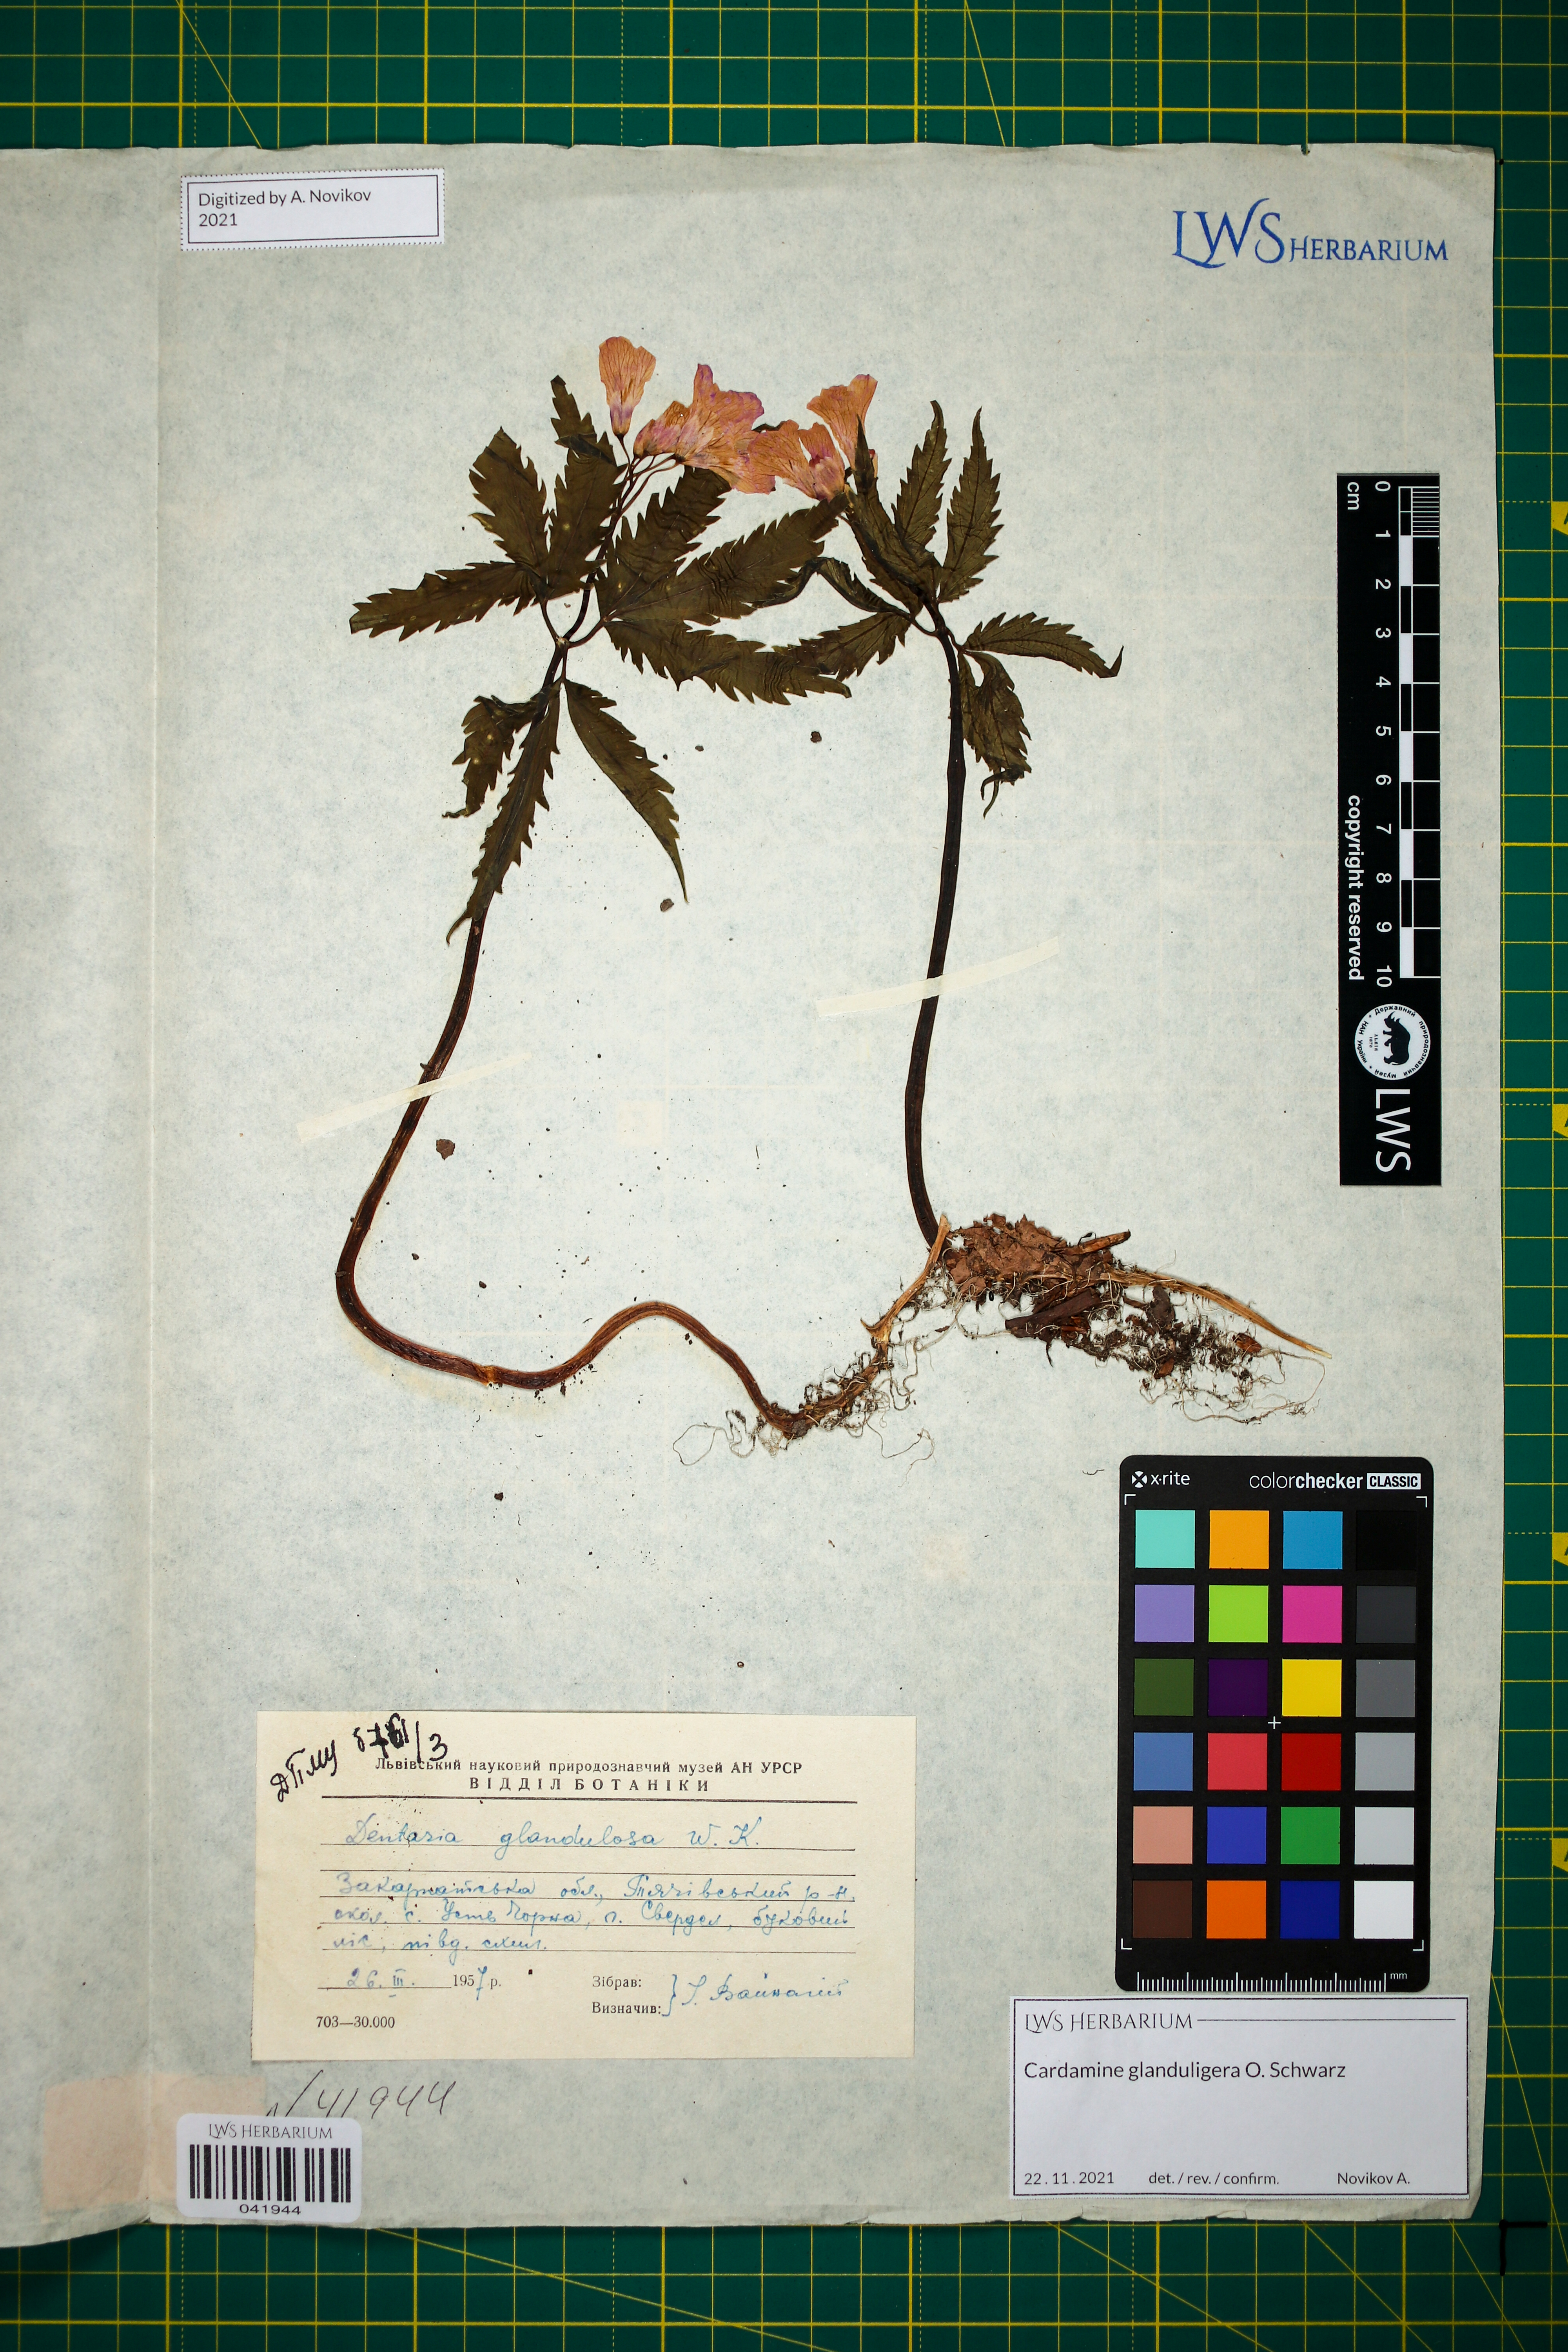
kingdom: Plantae
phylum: Tracheophyta
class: Magnoliopsida
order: Brassicales
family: Brassicaceae
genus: Cardamine
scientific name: Cardamine glanduligera
